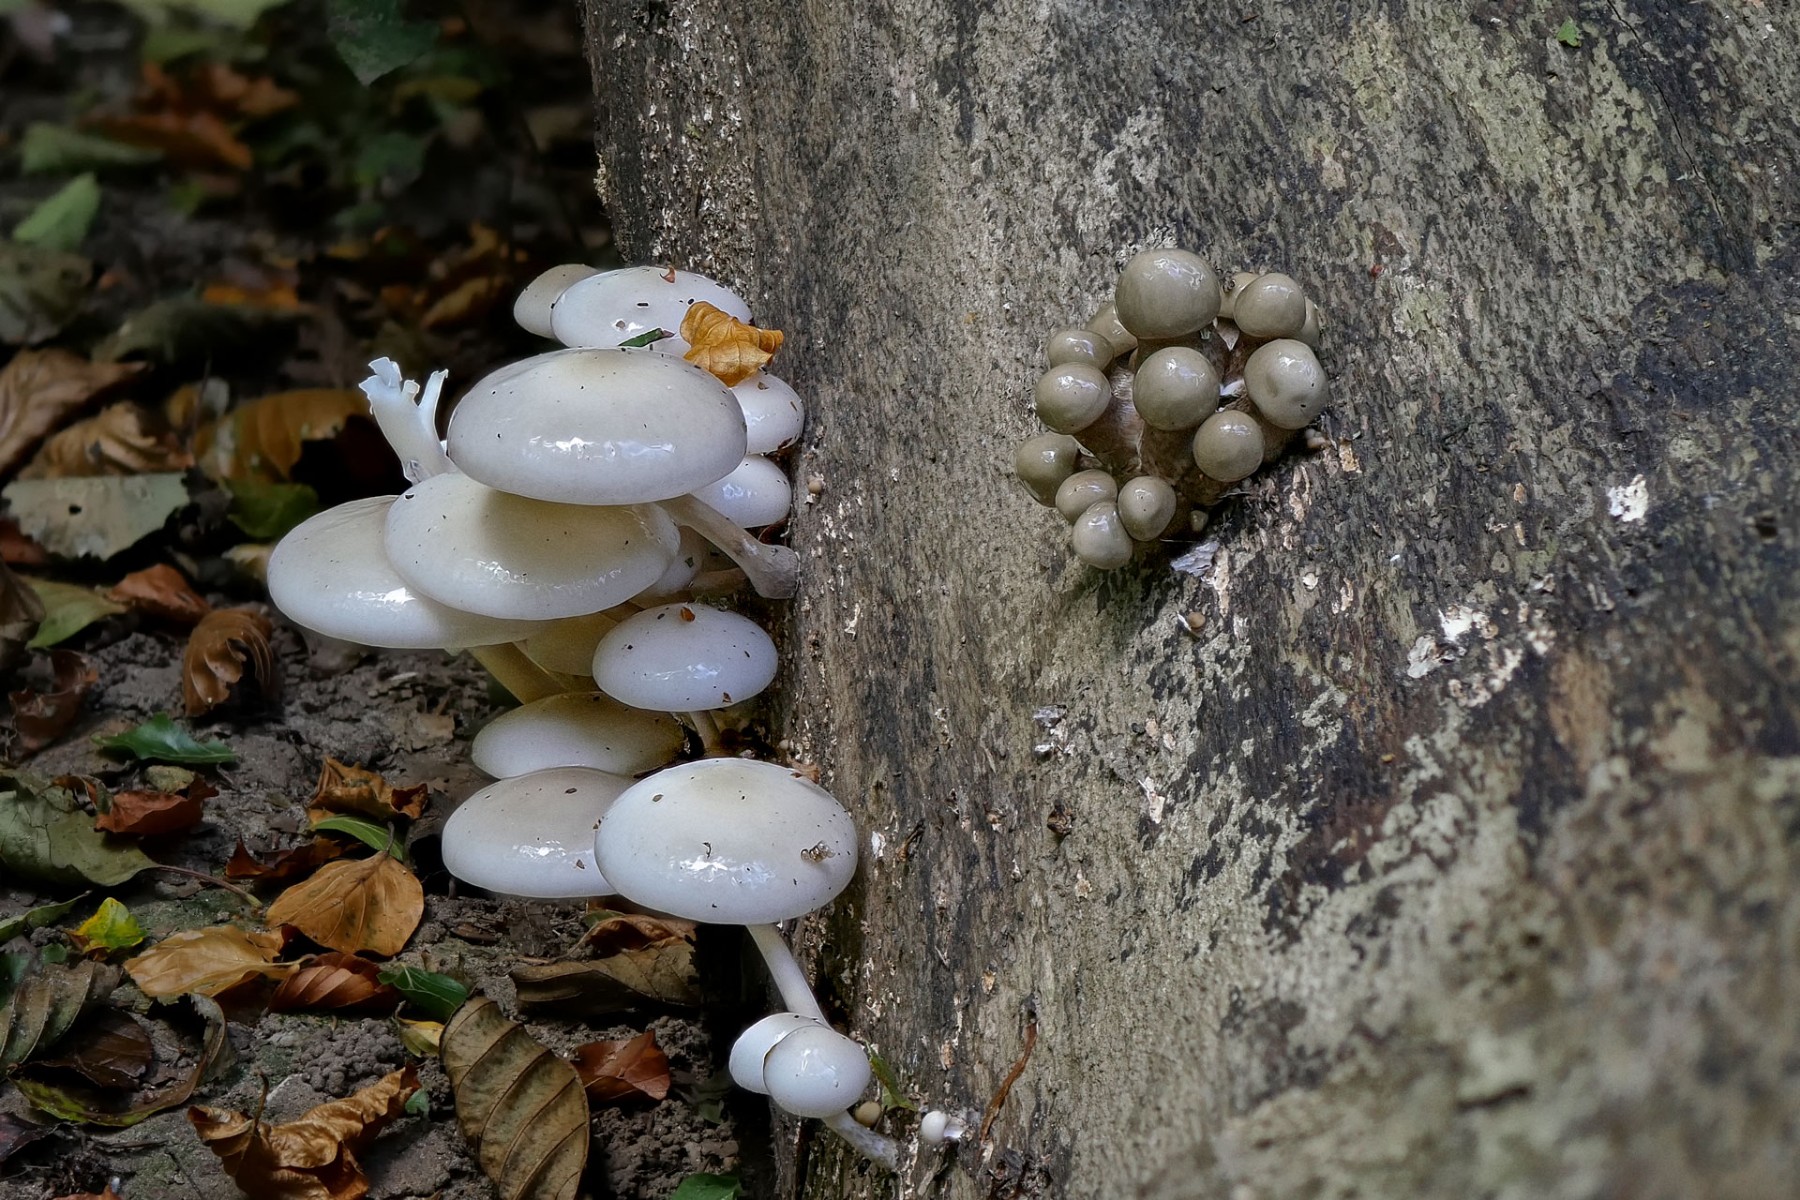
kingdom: Fungi
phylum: Basidiomycota
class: Agaricomycetes
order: Agaricales
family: Physalacriaceae
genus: Mucidula
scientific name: Mucidula mucida
